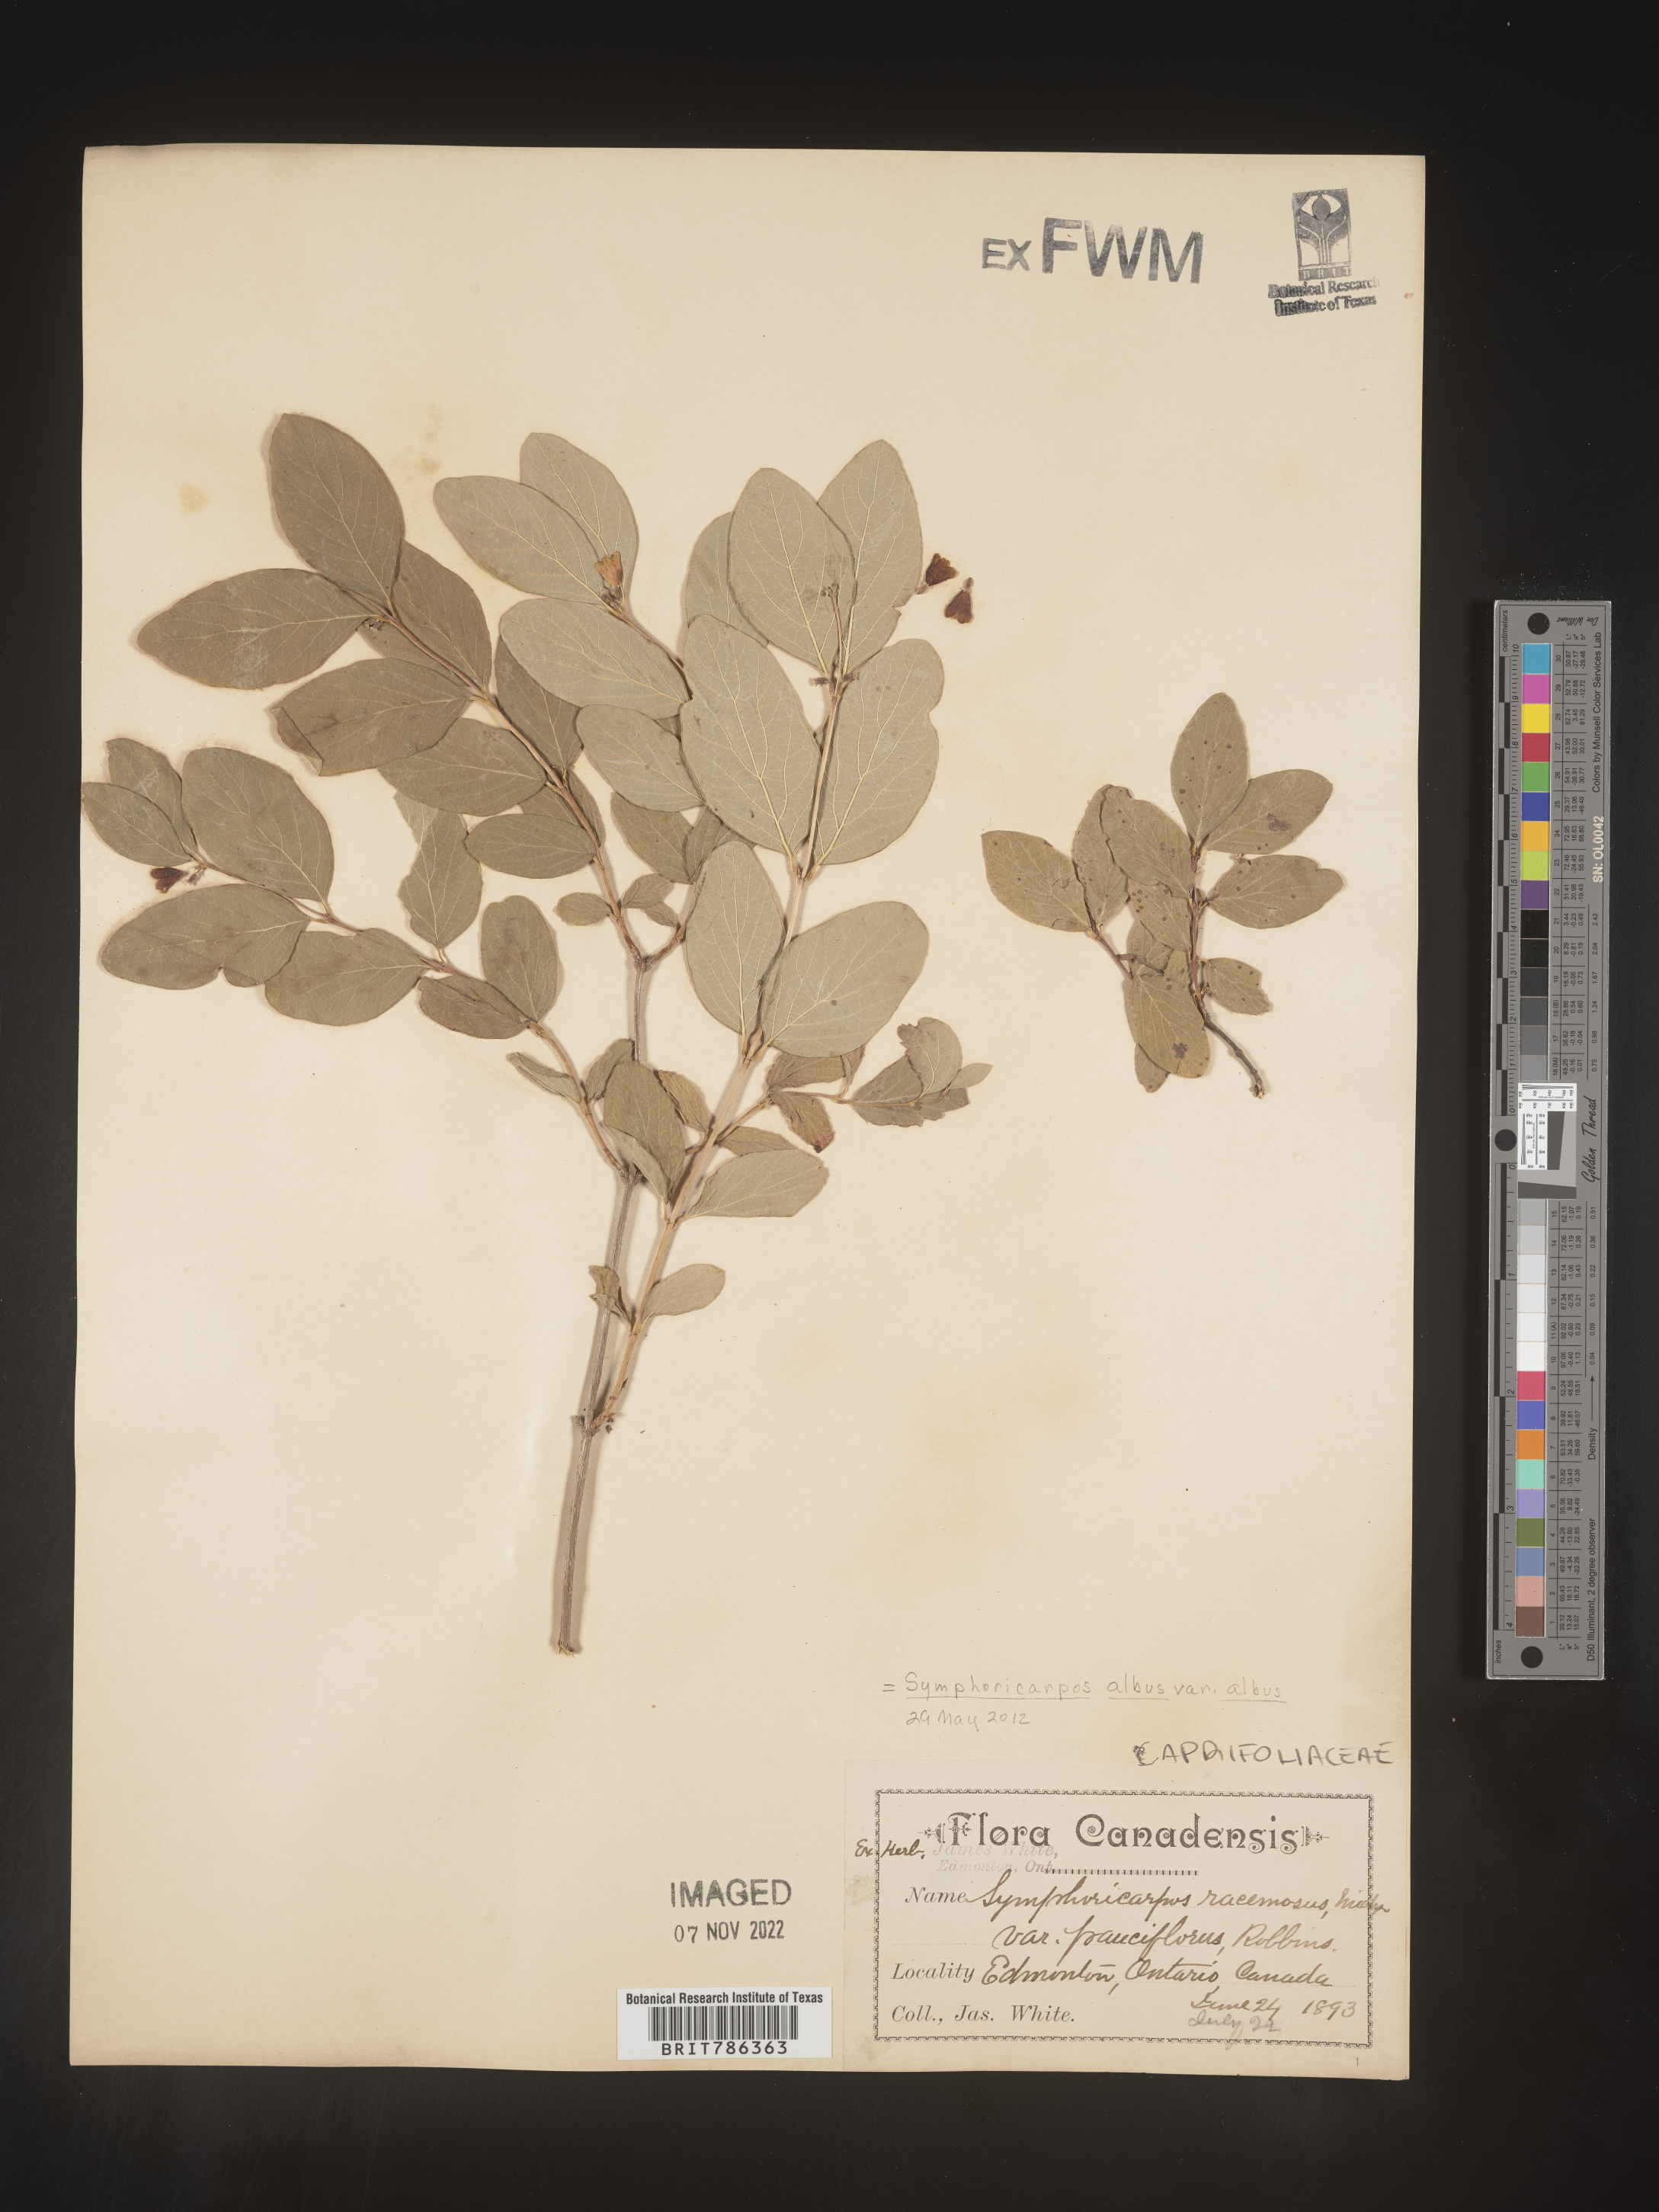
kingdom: Plantae
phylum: Tracheophyta
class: Magnoliopsida
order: Dipsacales
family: Caprifoliaceae
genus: Symphoricarpos
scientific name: Symphoricarpos albus
